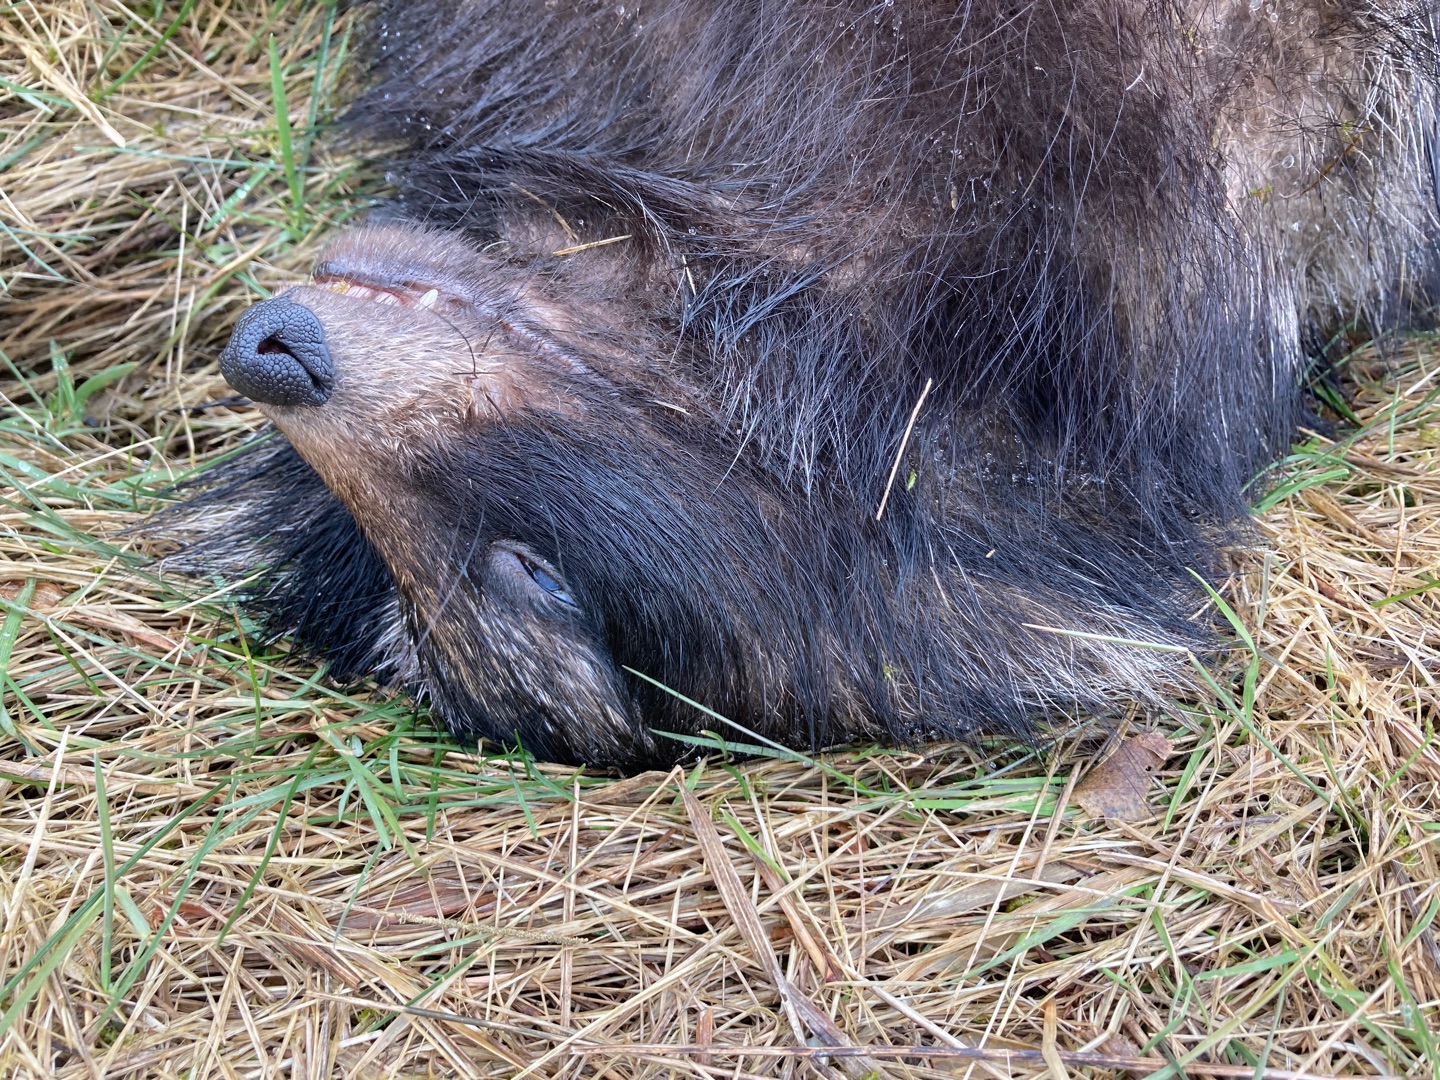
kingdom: Animalia
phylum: Chordata
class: Mammalia
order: Carnivora
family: Canidae
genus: Nyctereutes
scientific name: Nyctereutes procyonoides
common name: Mårhund
